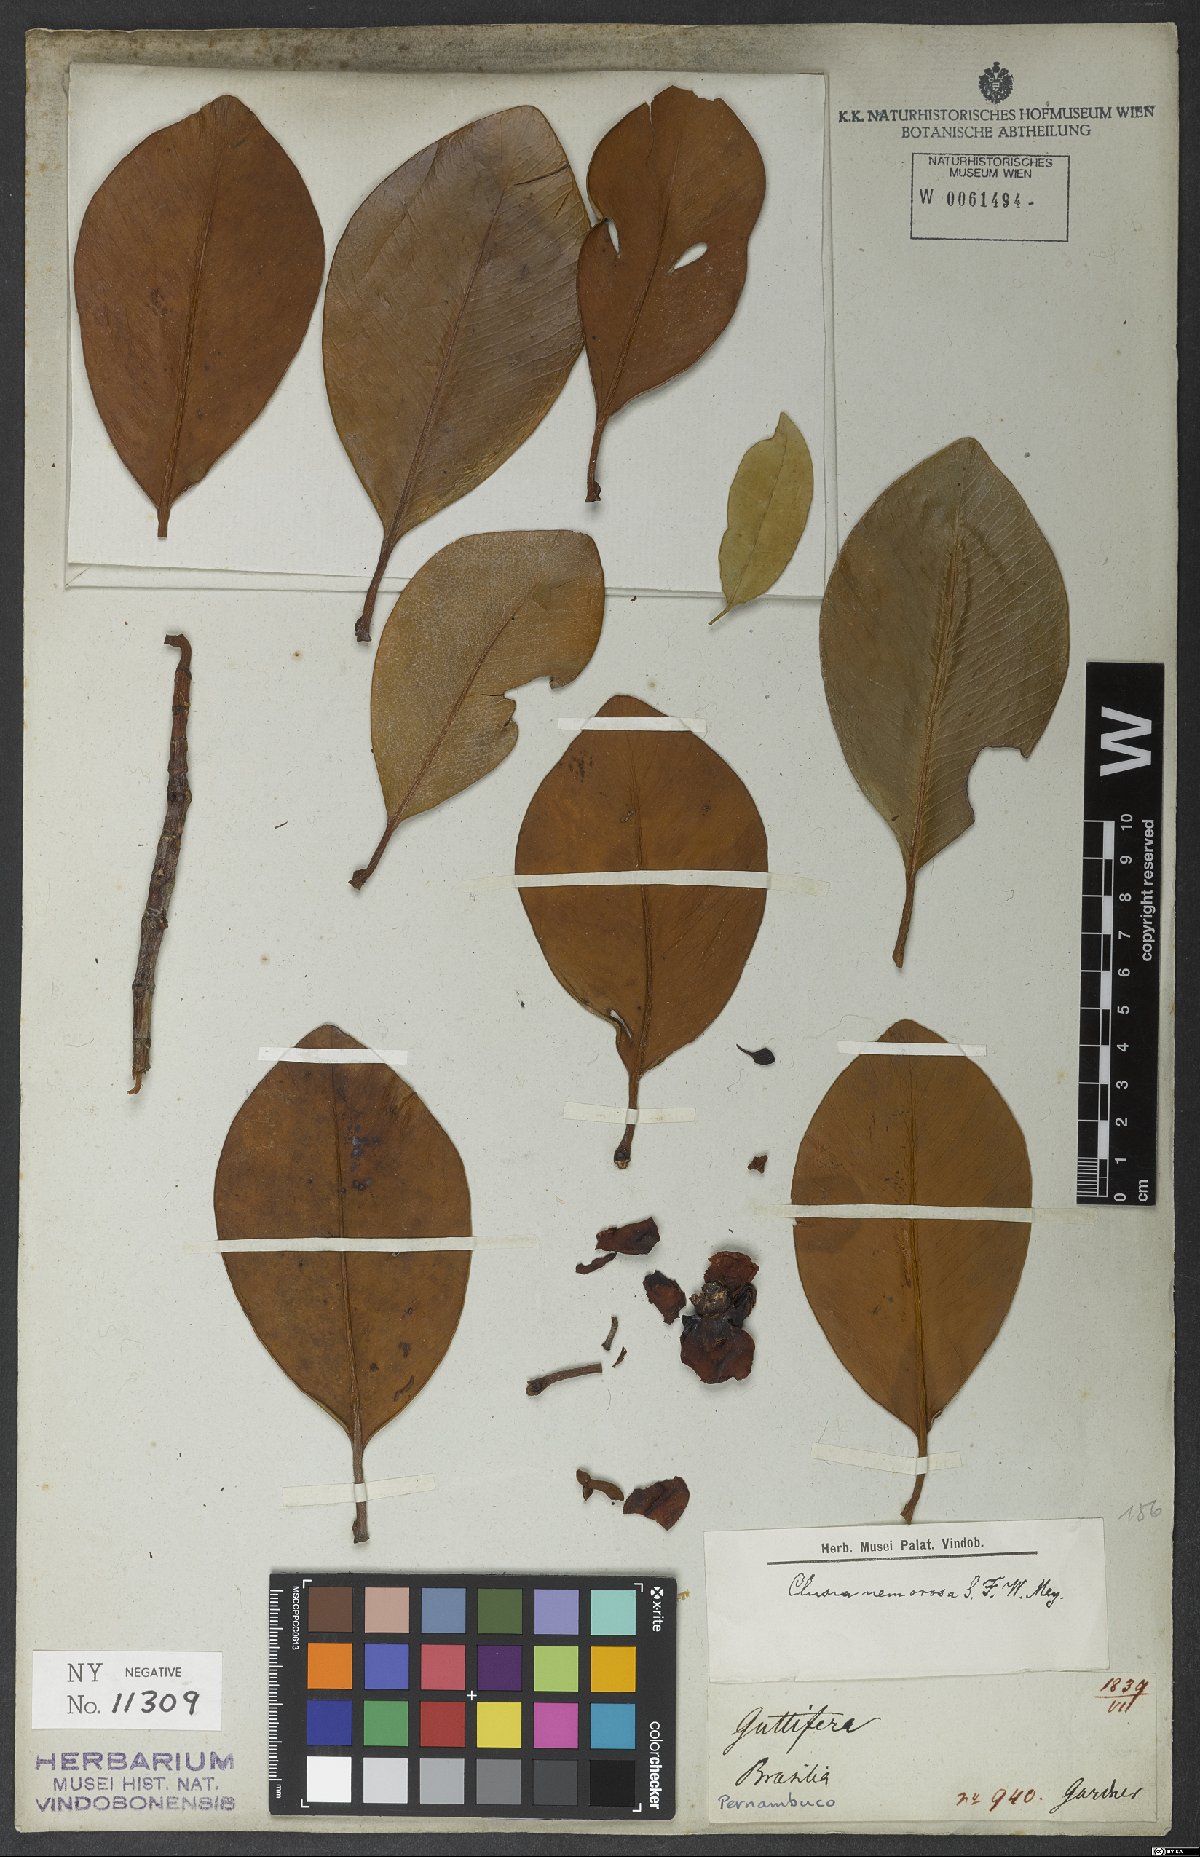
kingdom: Plantae
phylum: Tracheophyta
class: Magnoliopsida
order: Malpighiales
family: Clusiaceae
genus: Clusia
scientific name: Clusia fockeana
